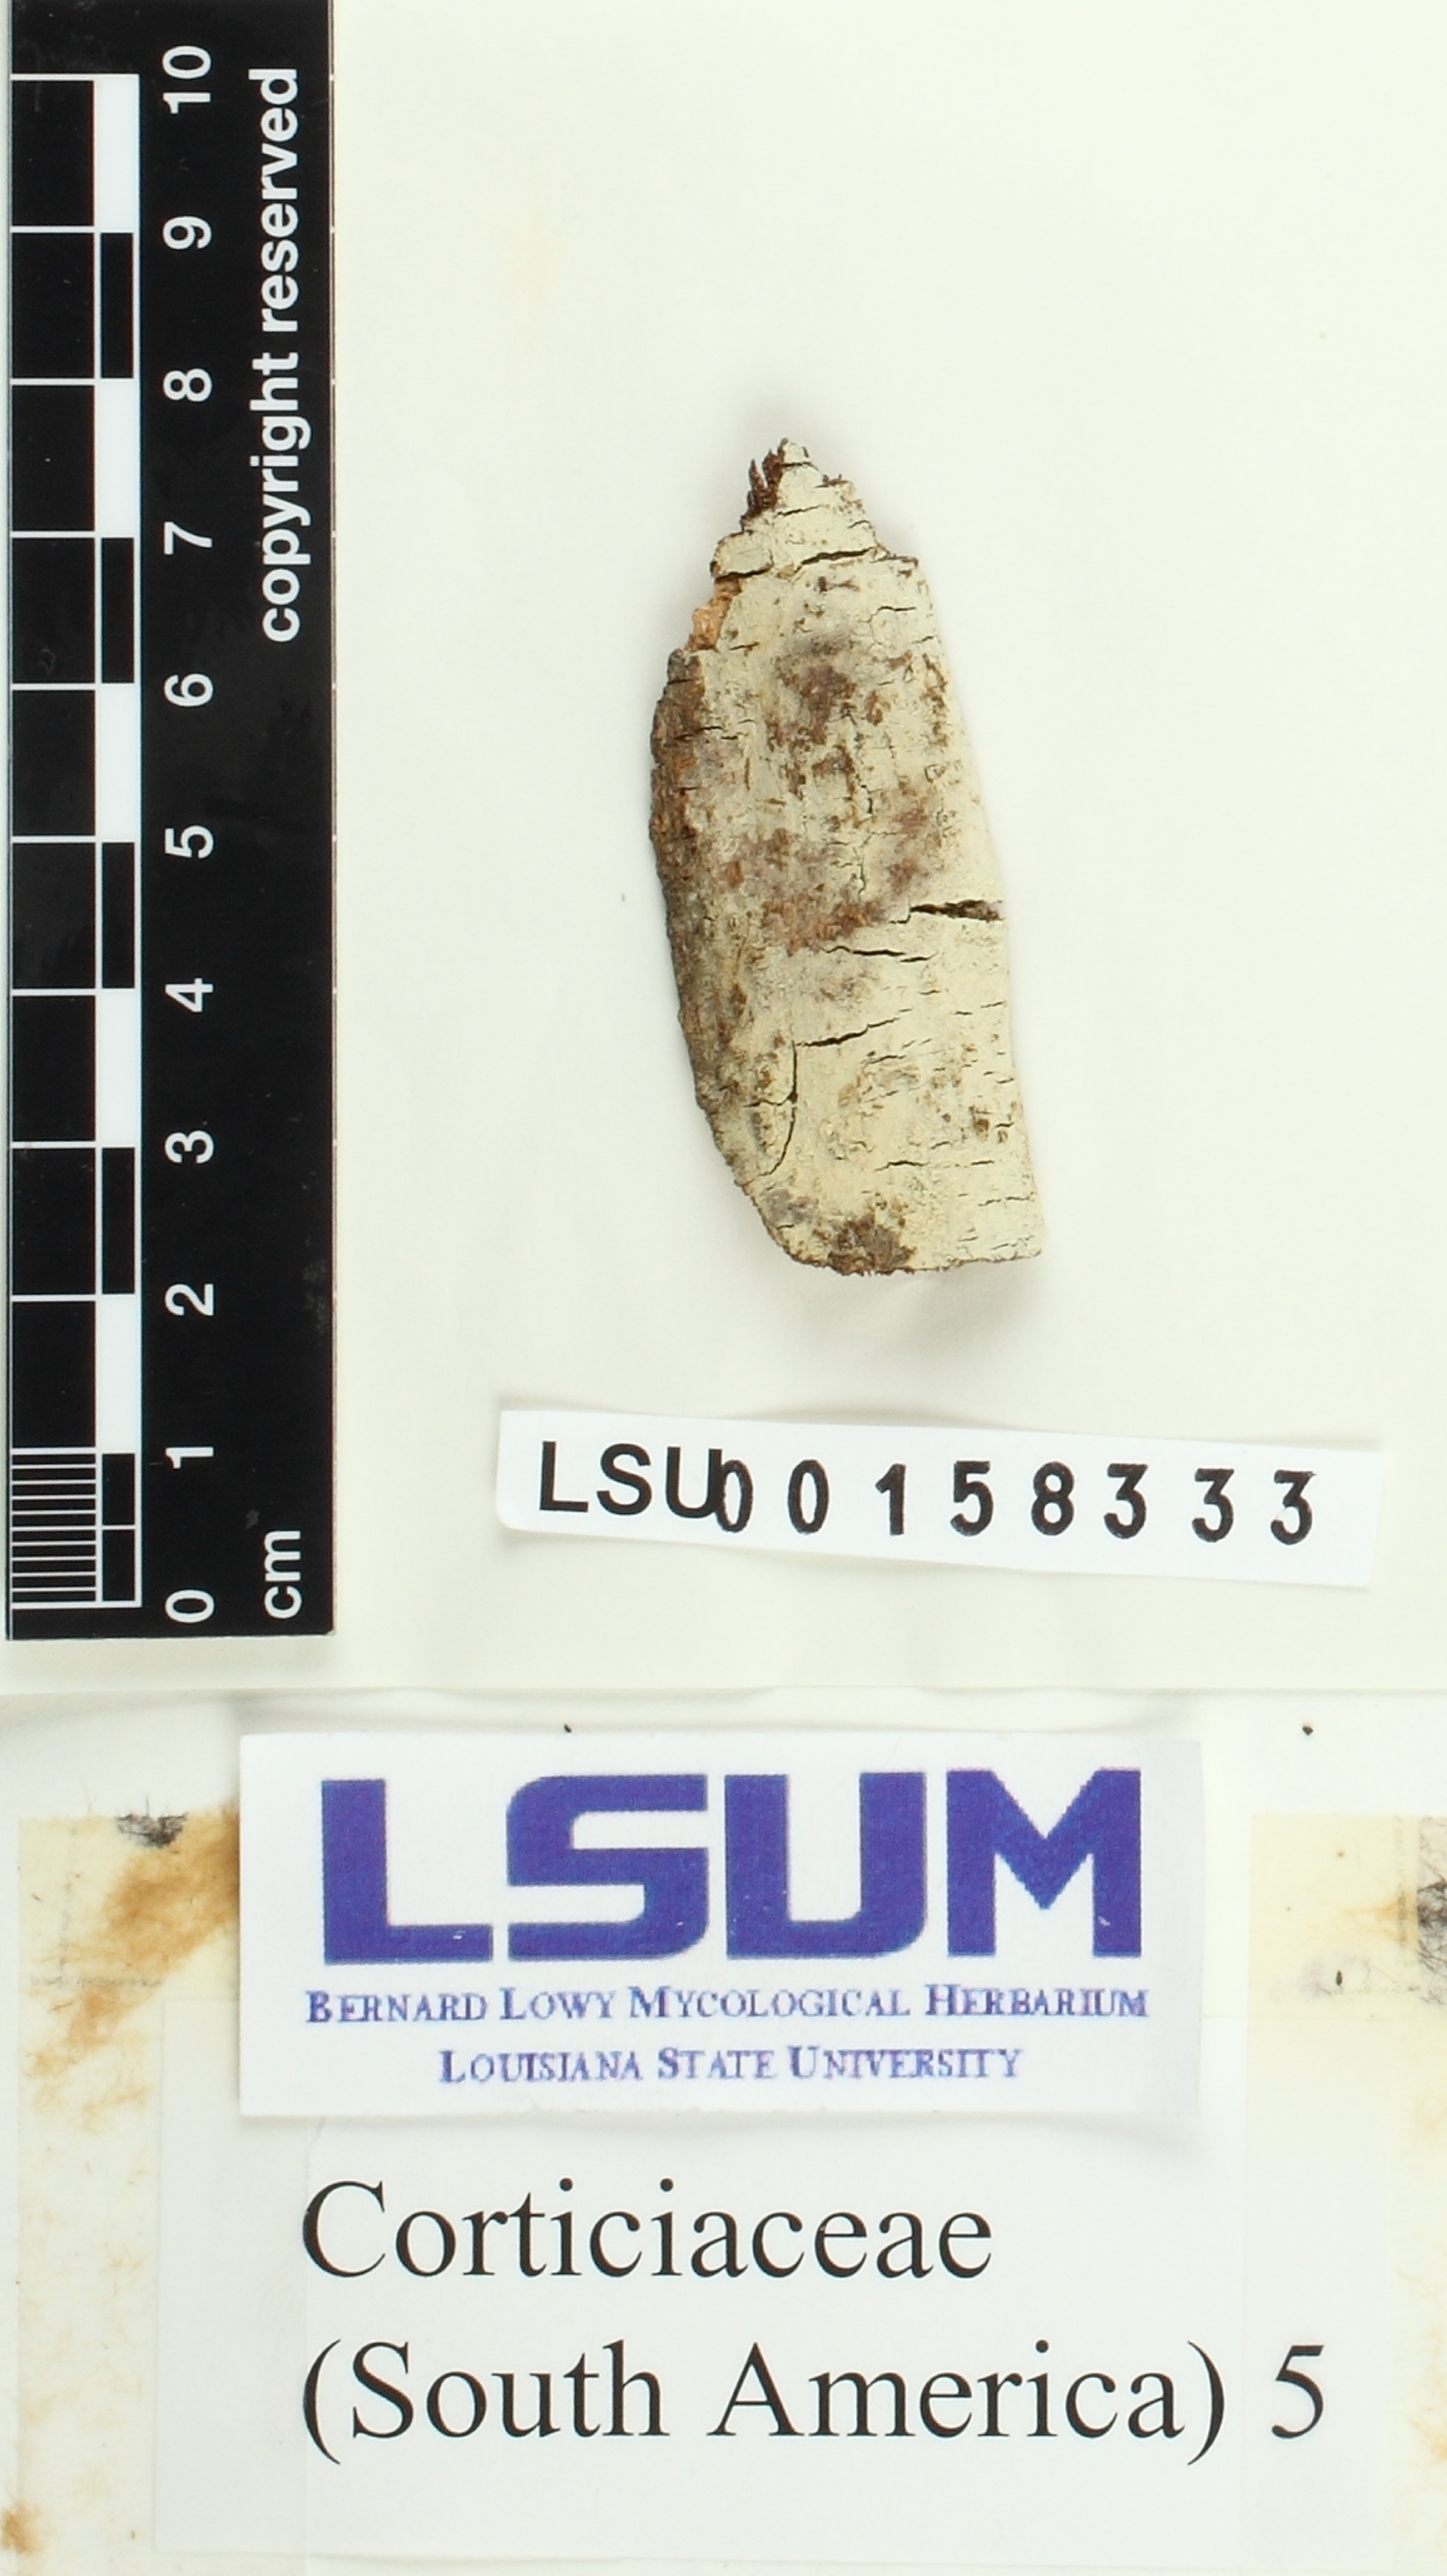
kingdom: Fungi
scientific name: Fungi
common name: Fungi
